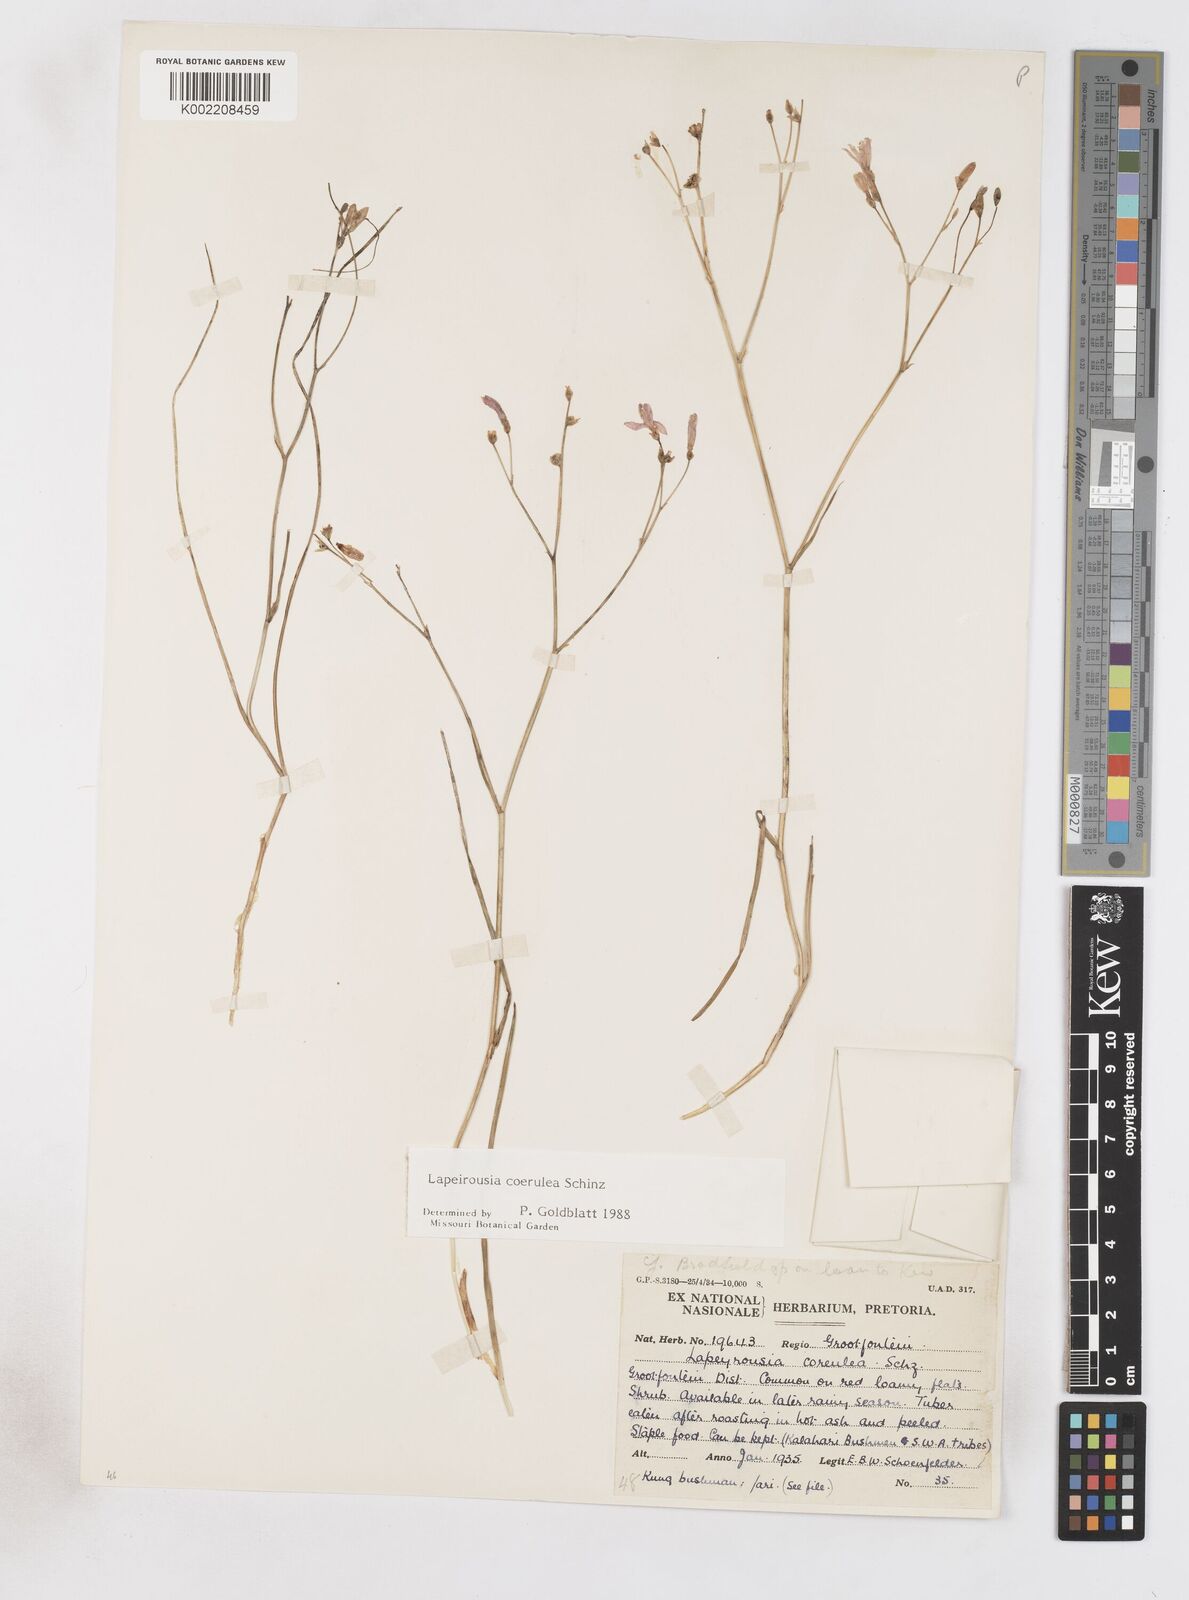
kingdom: Plantae
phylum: Tracheophyta
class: Liliopsida
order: Asparagales
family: Iridaceae
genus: Afrosolen
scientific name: Afrosolen coeruleus
